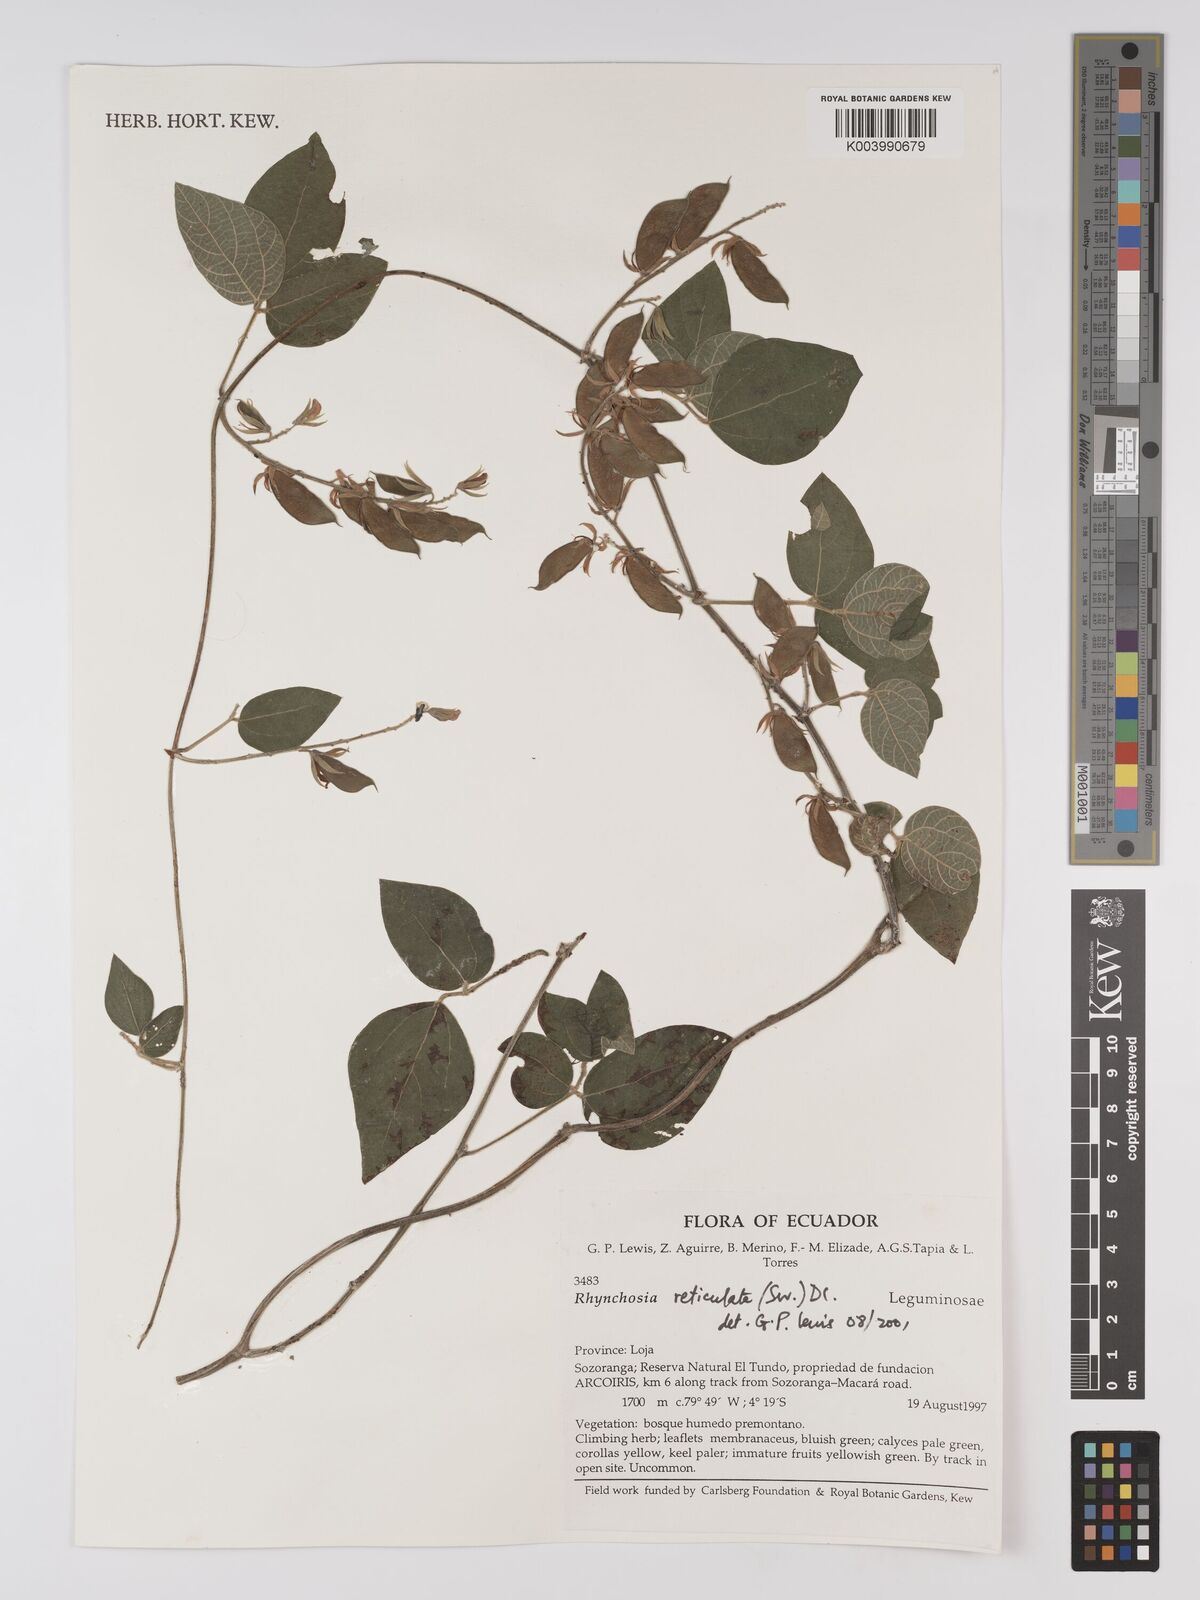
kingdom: Plantae
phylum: Tracheophyta
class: Magnoliopsida
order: Fabales
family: Fabaceae
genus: Rhynchosia
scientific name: Rhynchosia reticulata
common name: Pea withe
